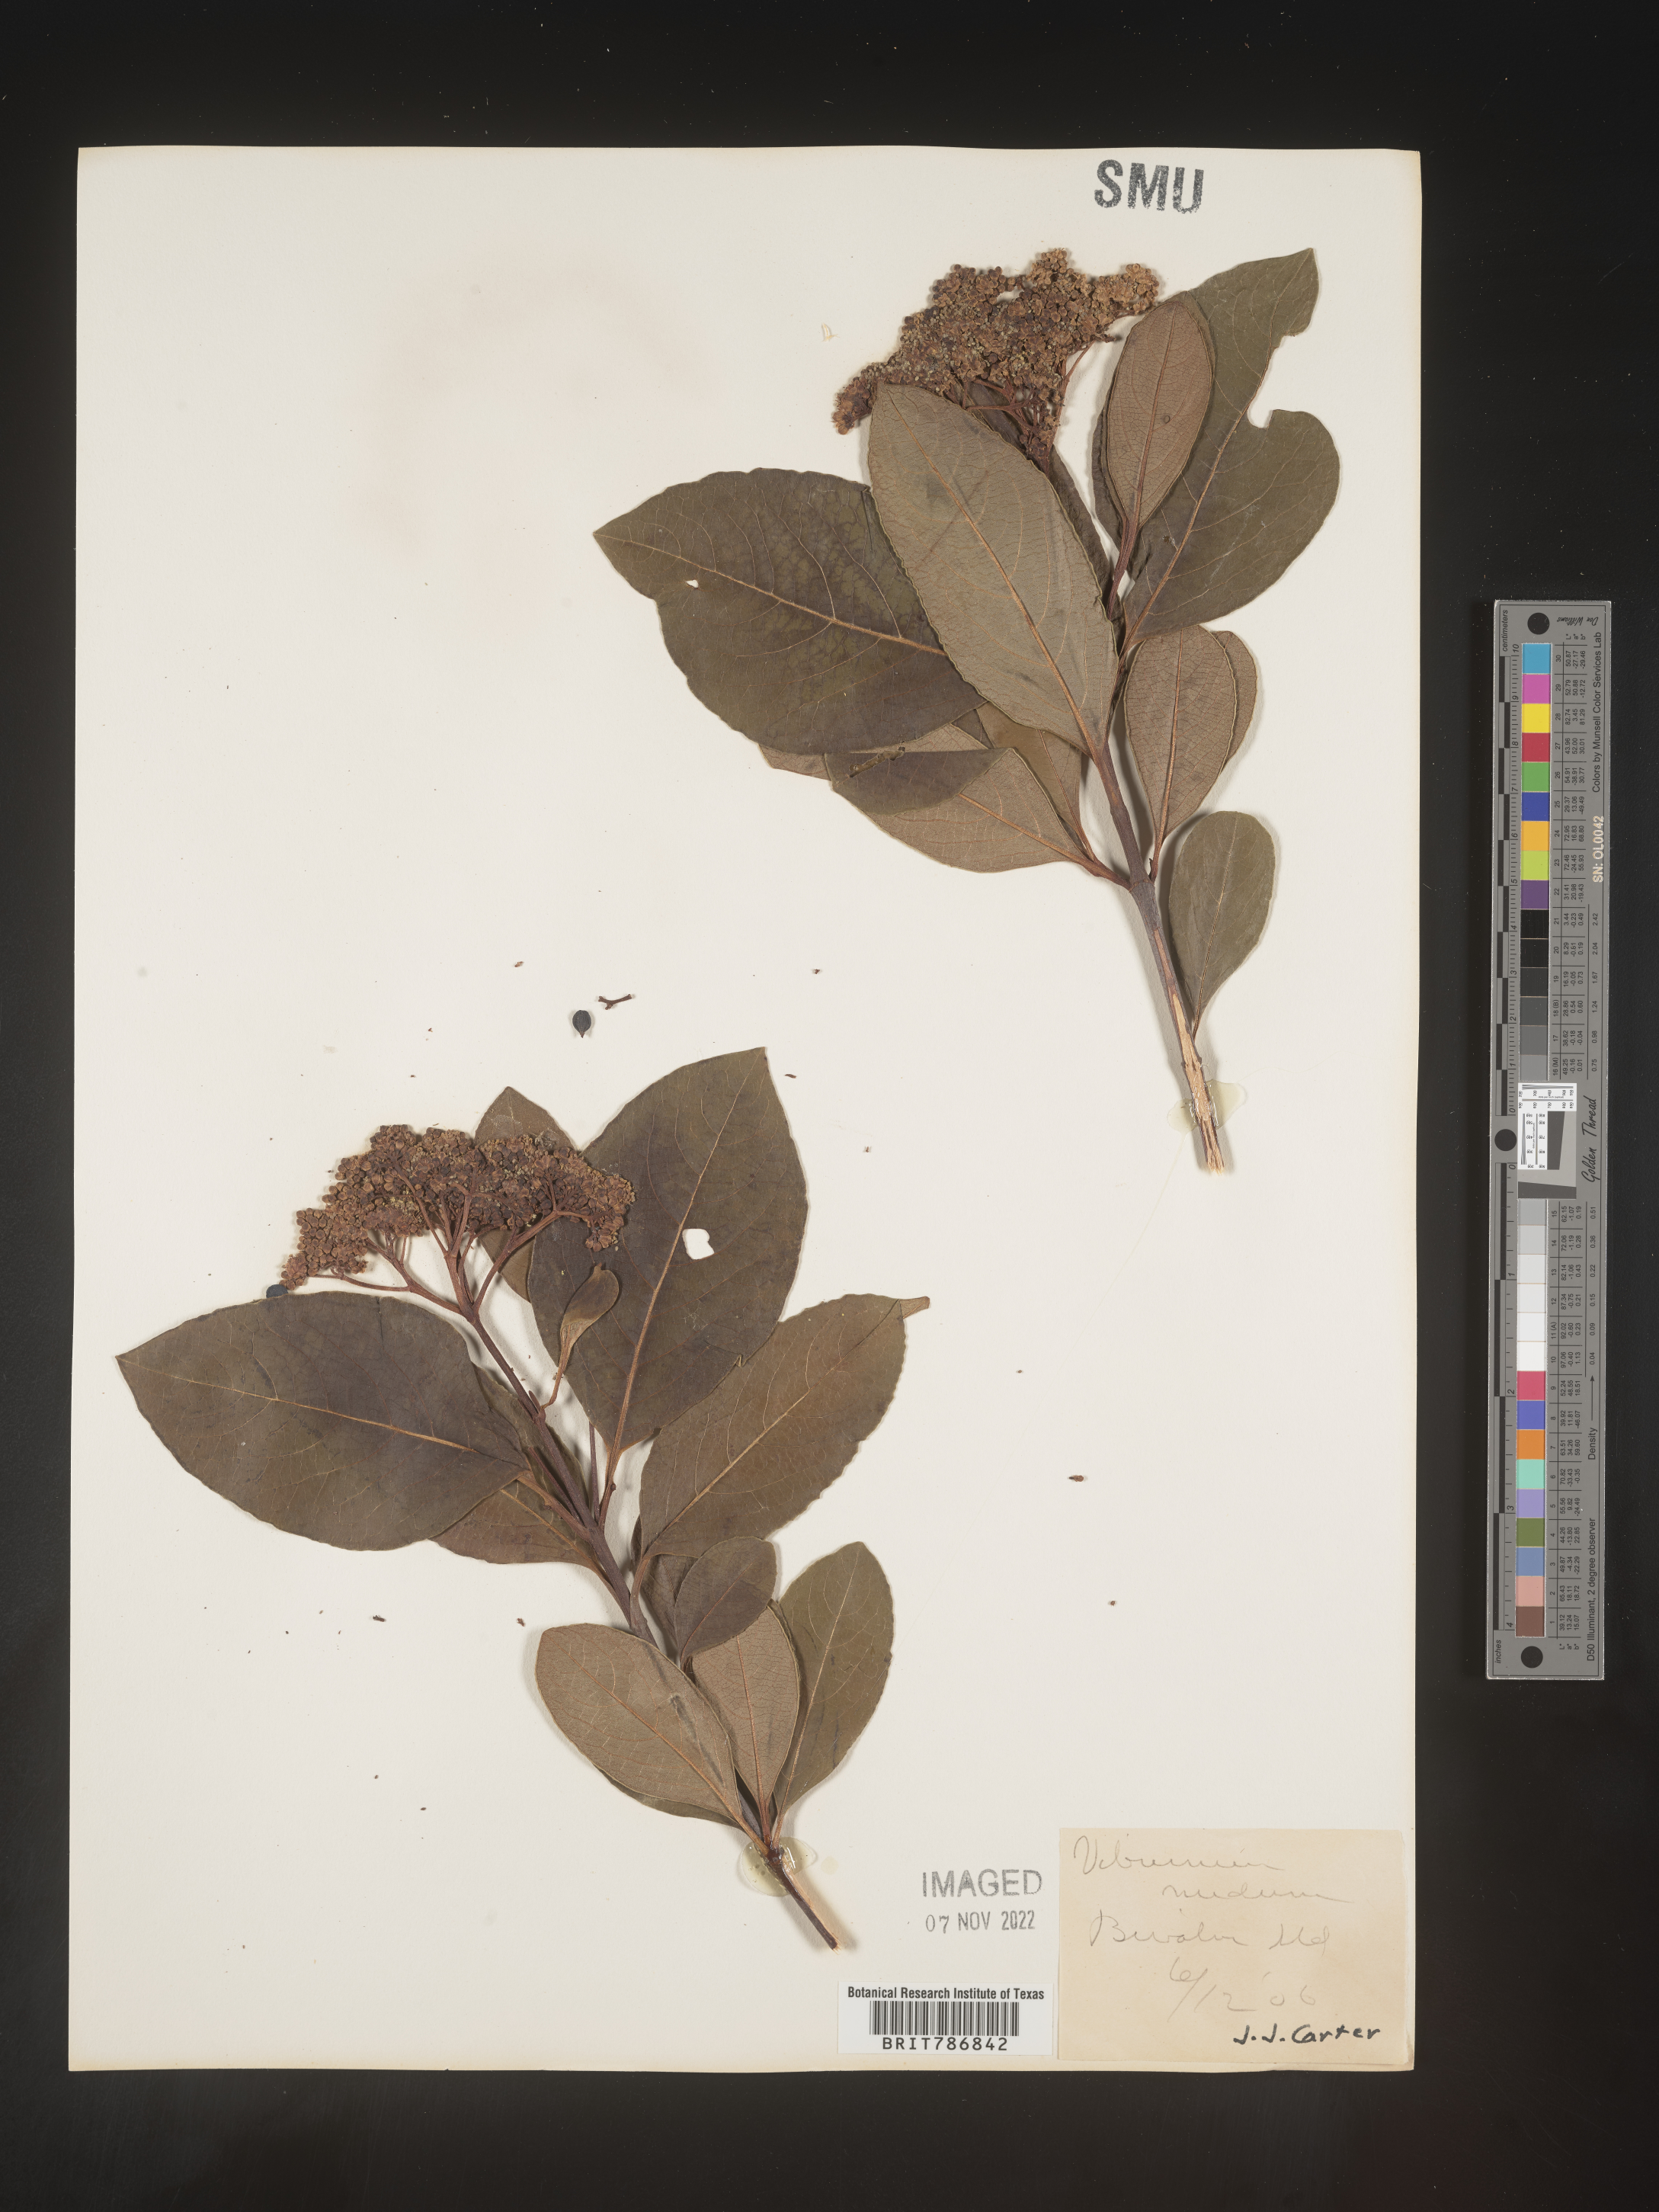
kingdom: Plantae
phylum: Tracheophyta
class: Magnoliopsida
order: Dipsacales
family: Viburnaceae
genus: Viburnum
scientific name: Viburnum nudum
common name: Possum haw
